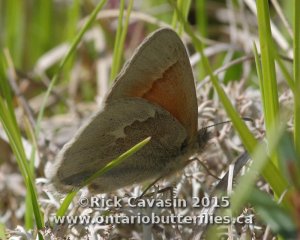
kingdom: Animalia
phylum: Arthropoda
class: Insecta
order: Lepidoptera
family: Nymphalidae
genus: Coenonympha
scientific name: Coenonympha tullia
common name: Large Heath
